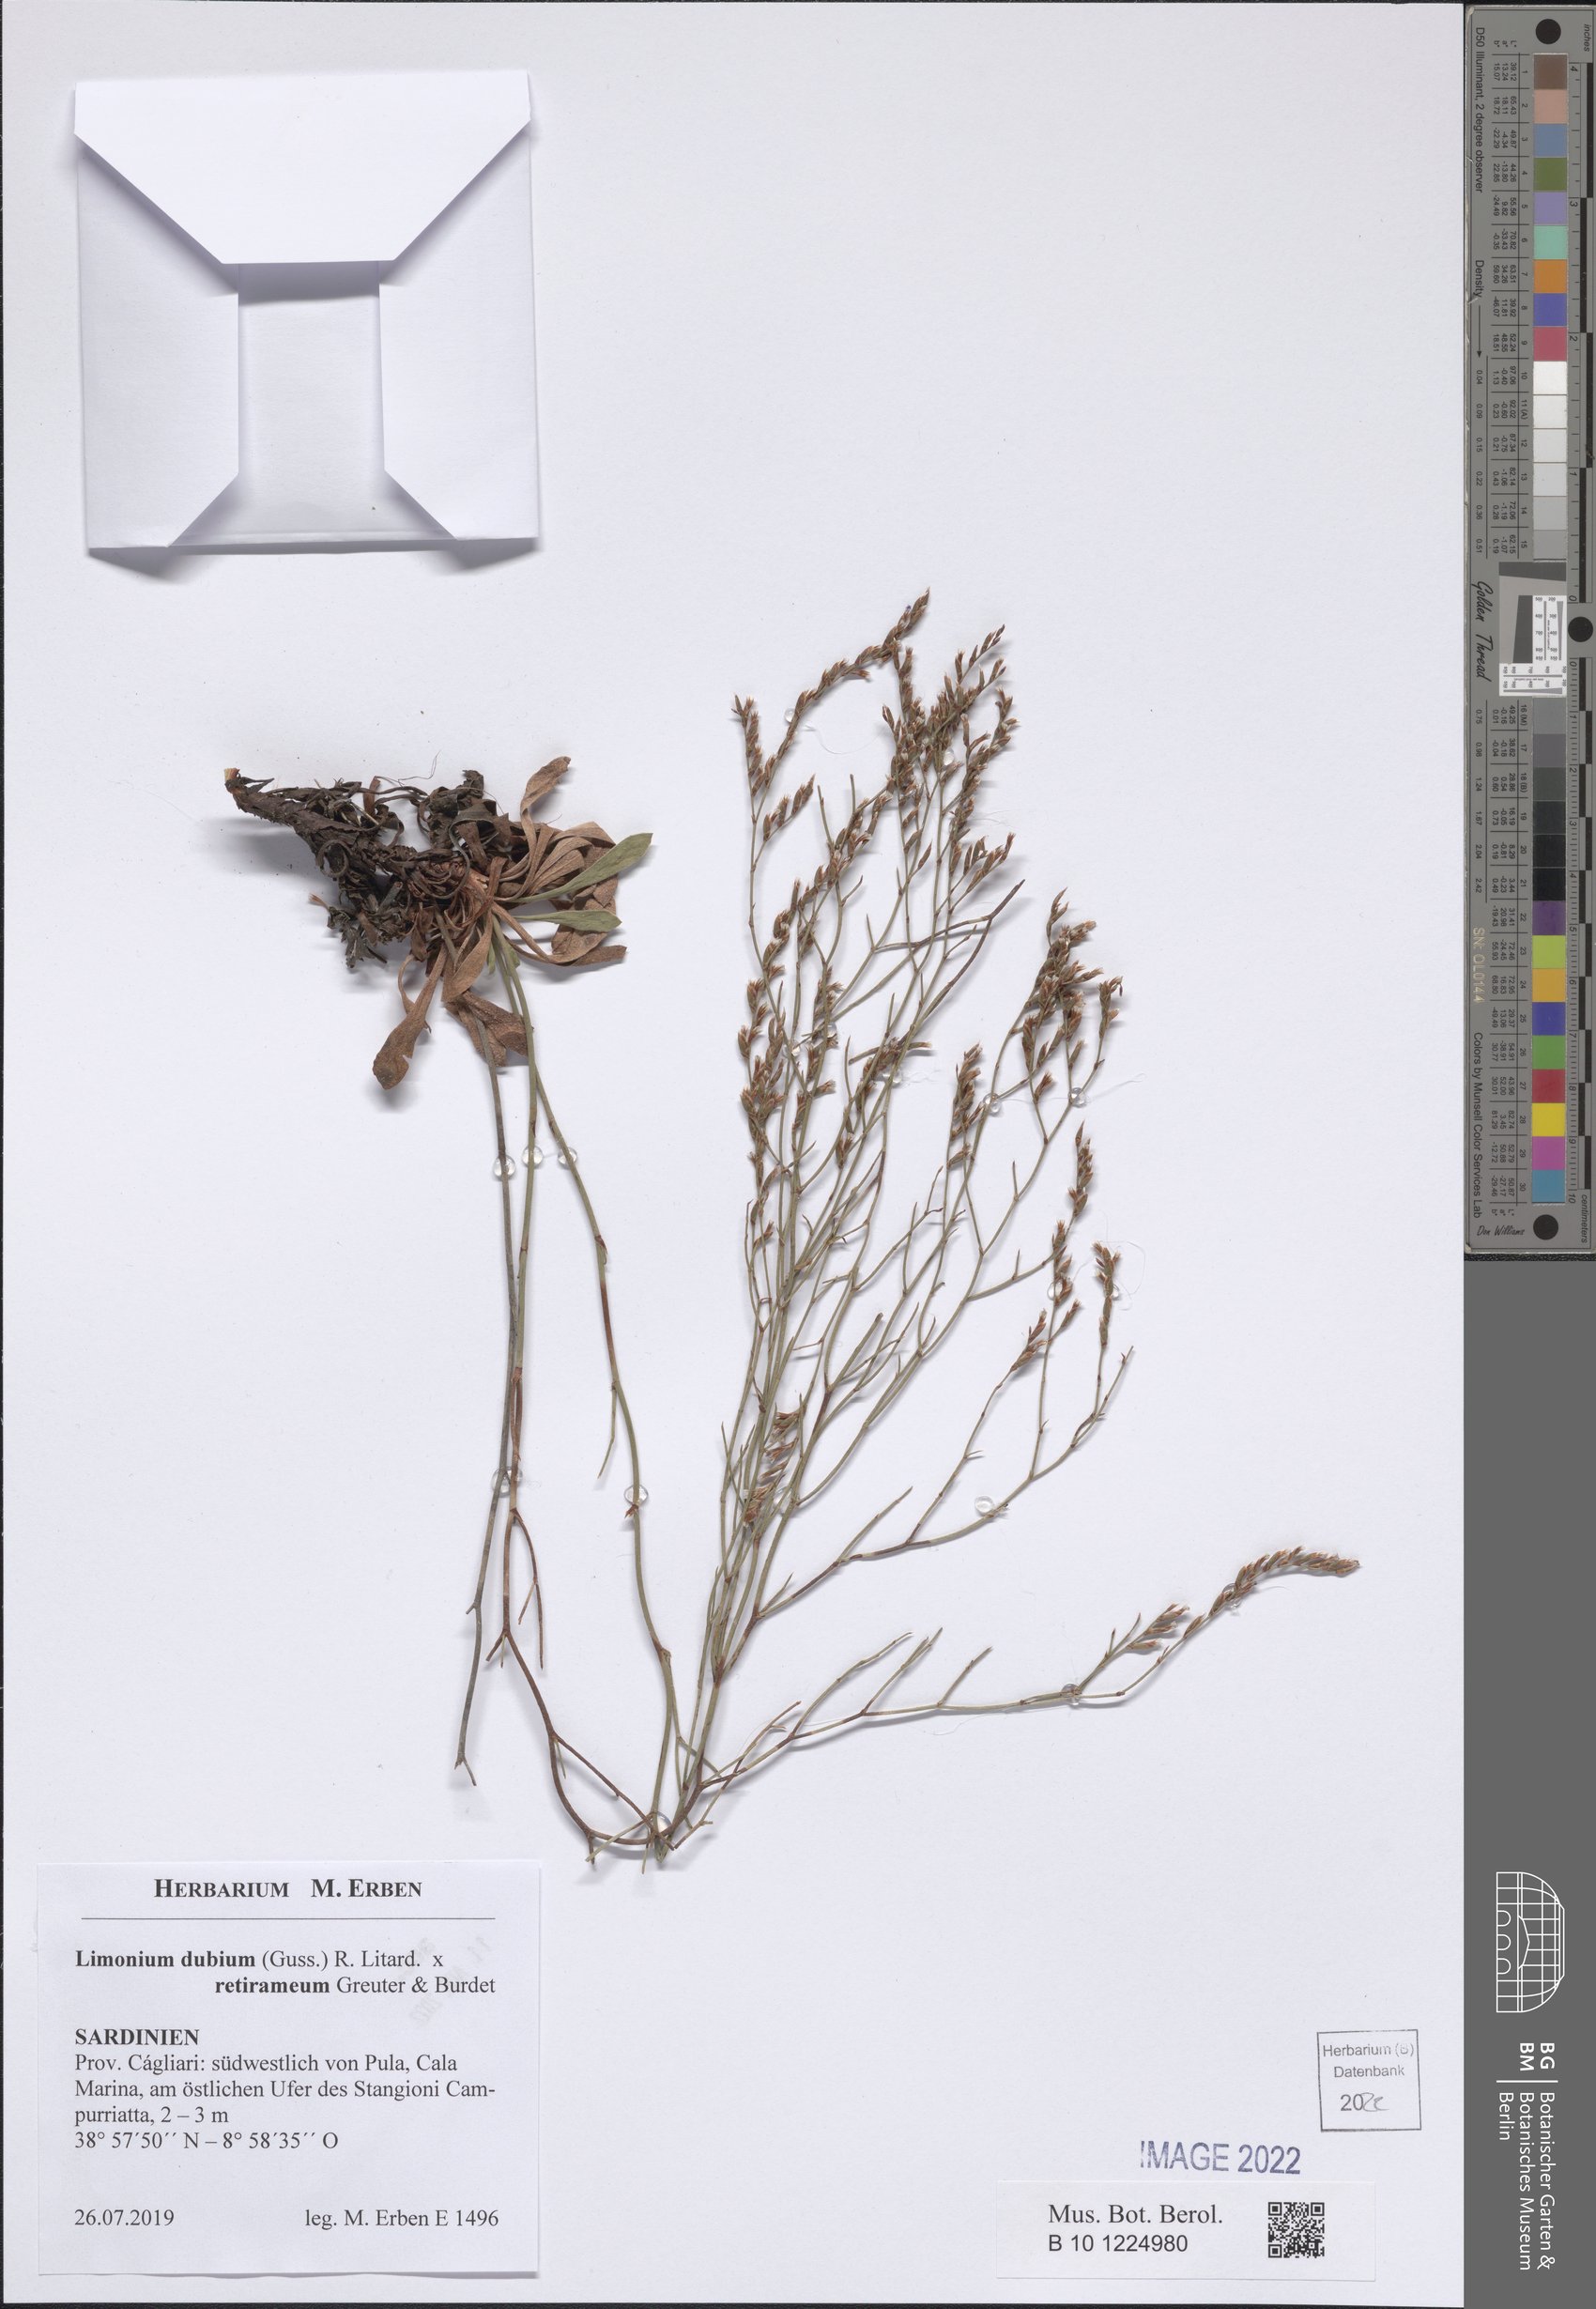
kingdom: Plantae
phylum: Tracheophyta
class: Magnoliopsida
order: Caryophyllales
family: Plumbaginaceae
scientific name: Plumbaginaceae
